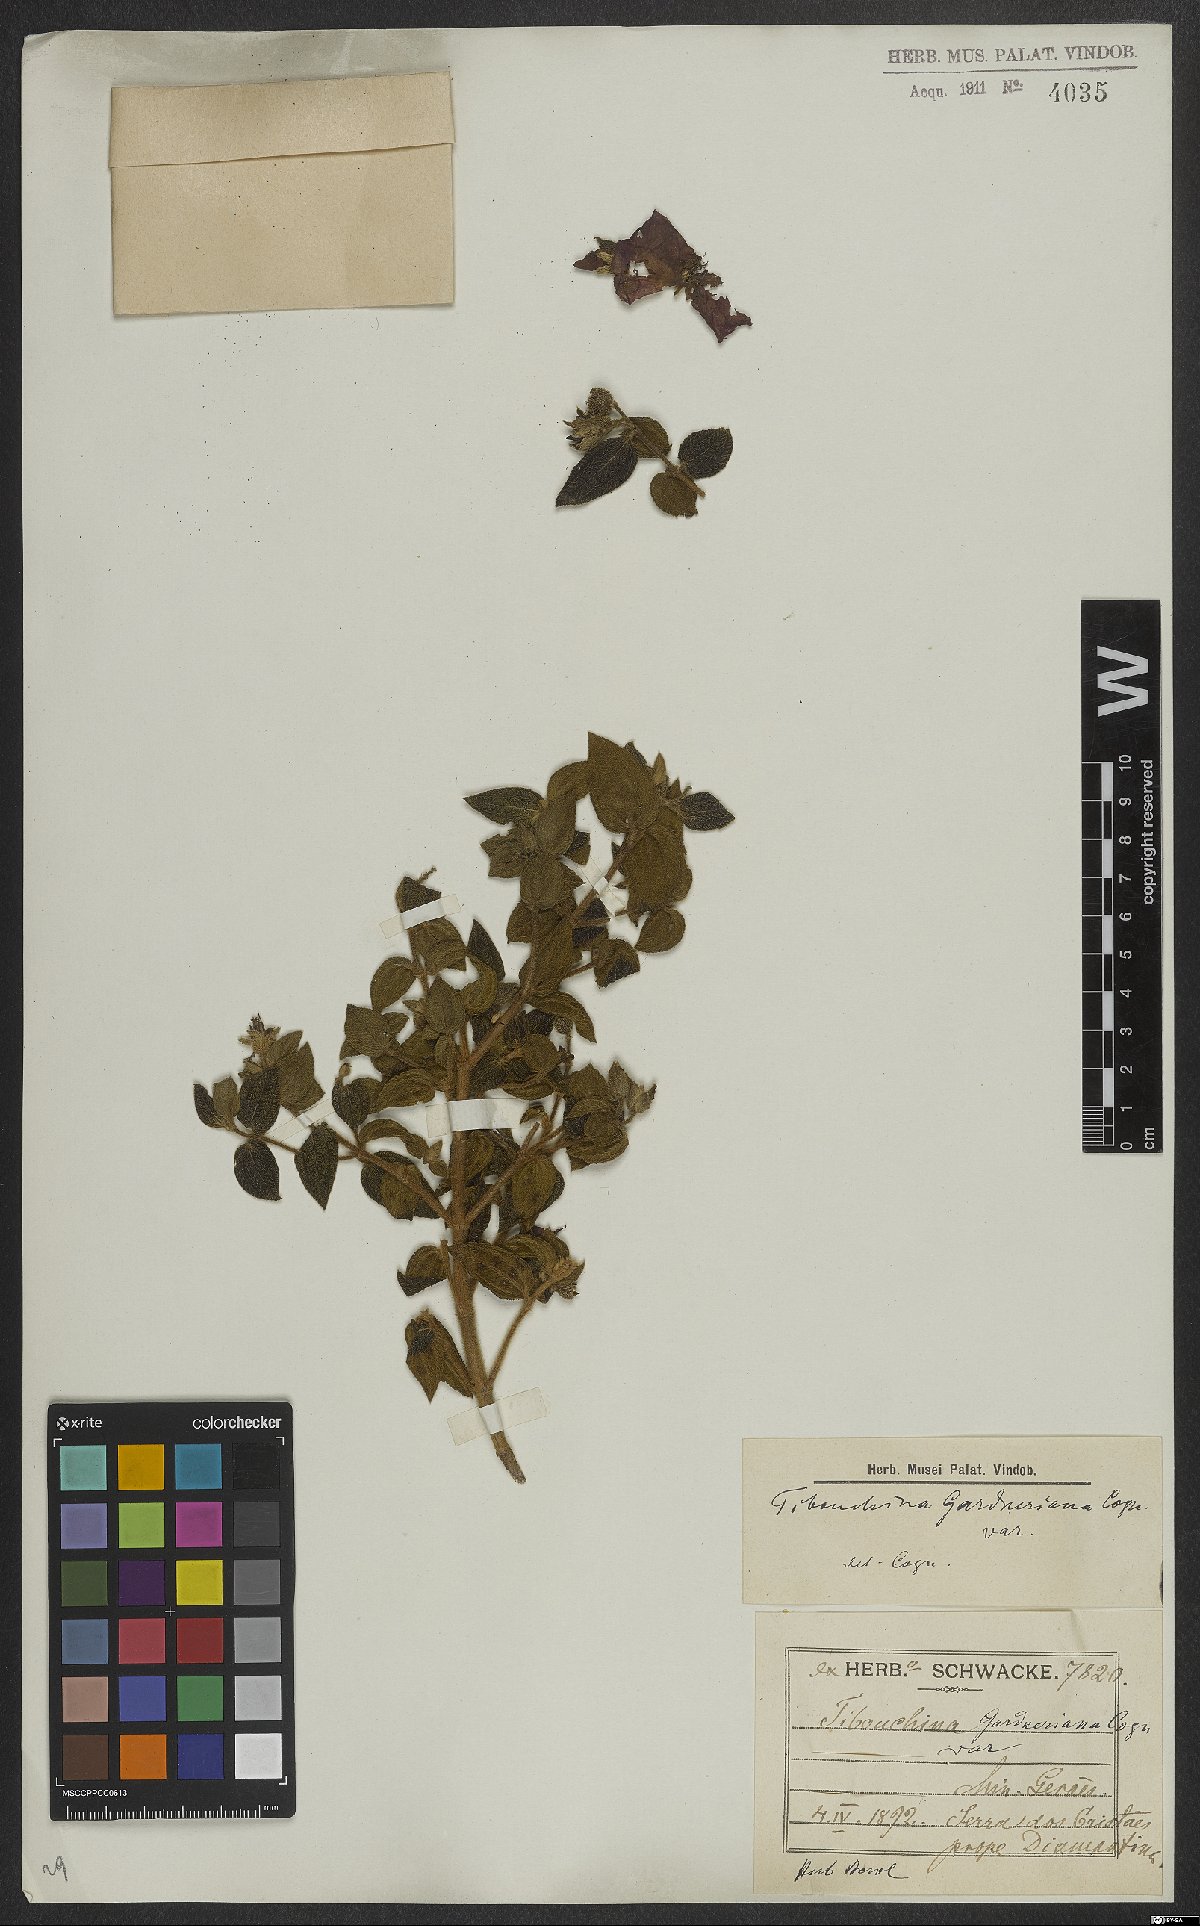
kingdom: Plantae
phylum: Tracheophyta
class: Magnoliopsida
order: Myrtales
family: Melastomataceae
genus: Pleroma
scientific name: Pleroma echinatum
